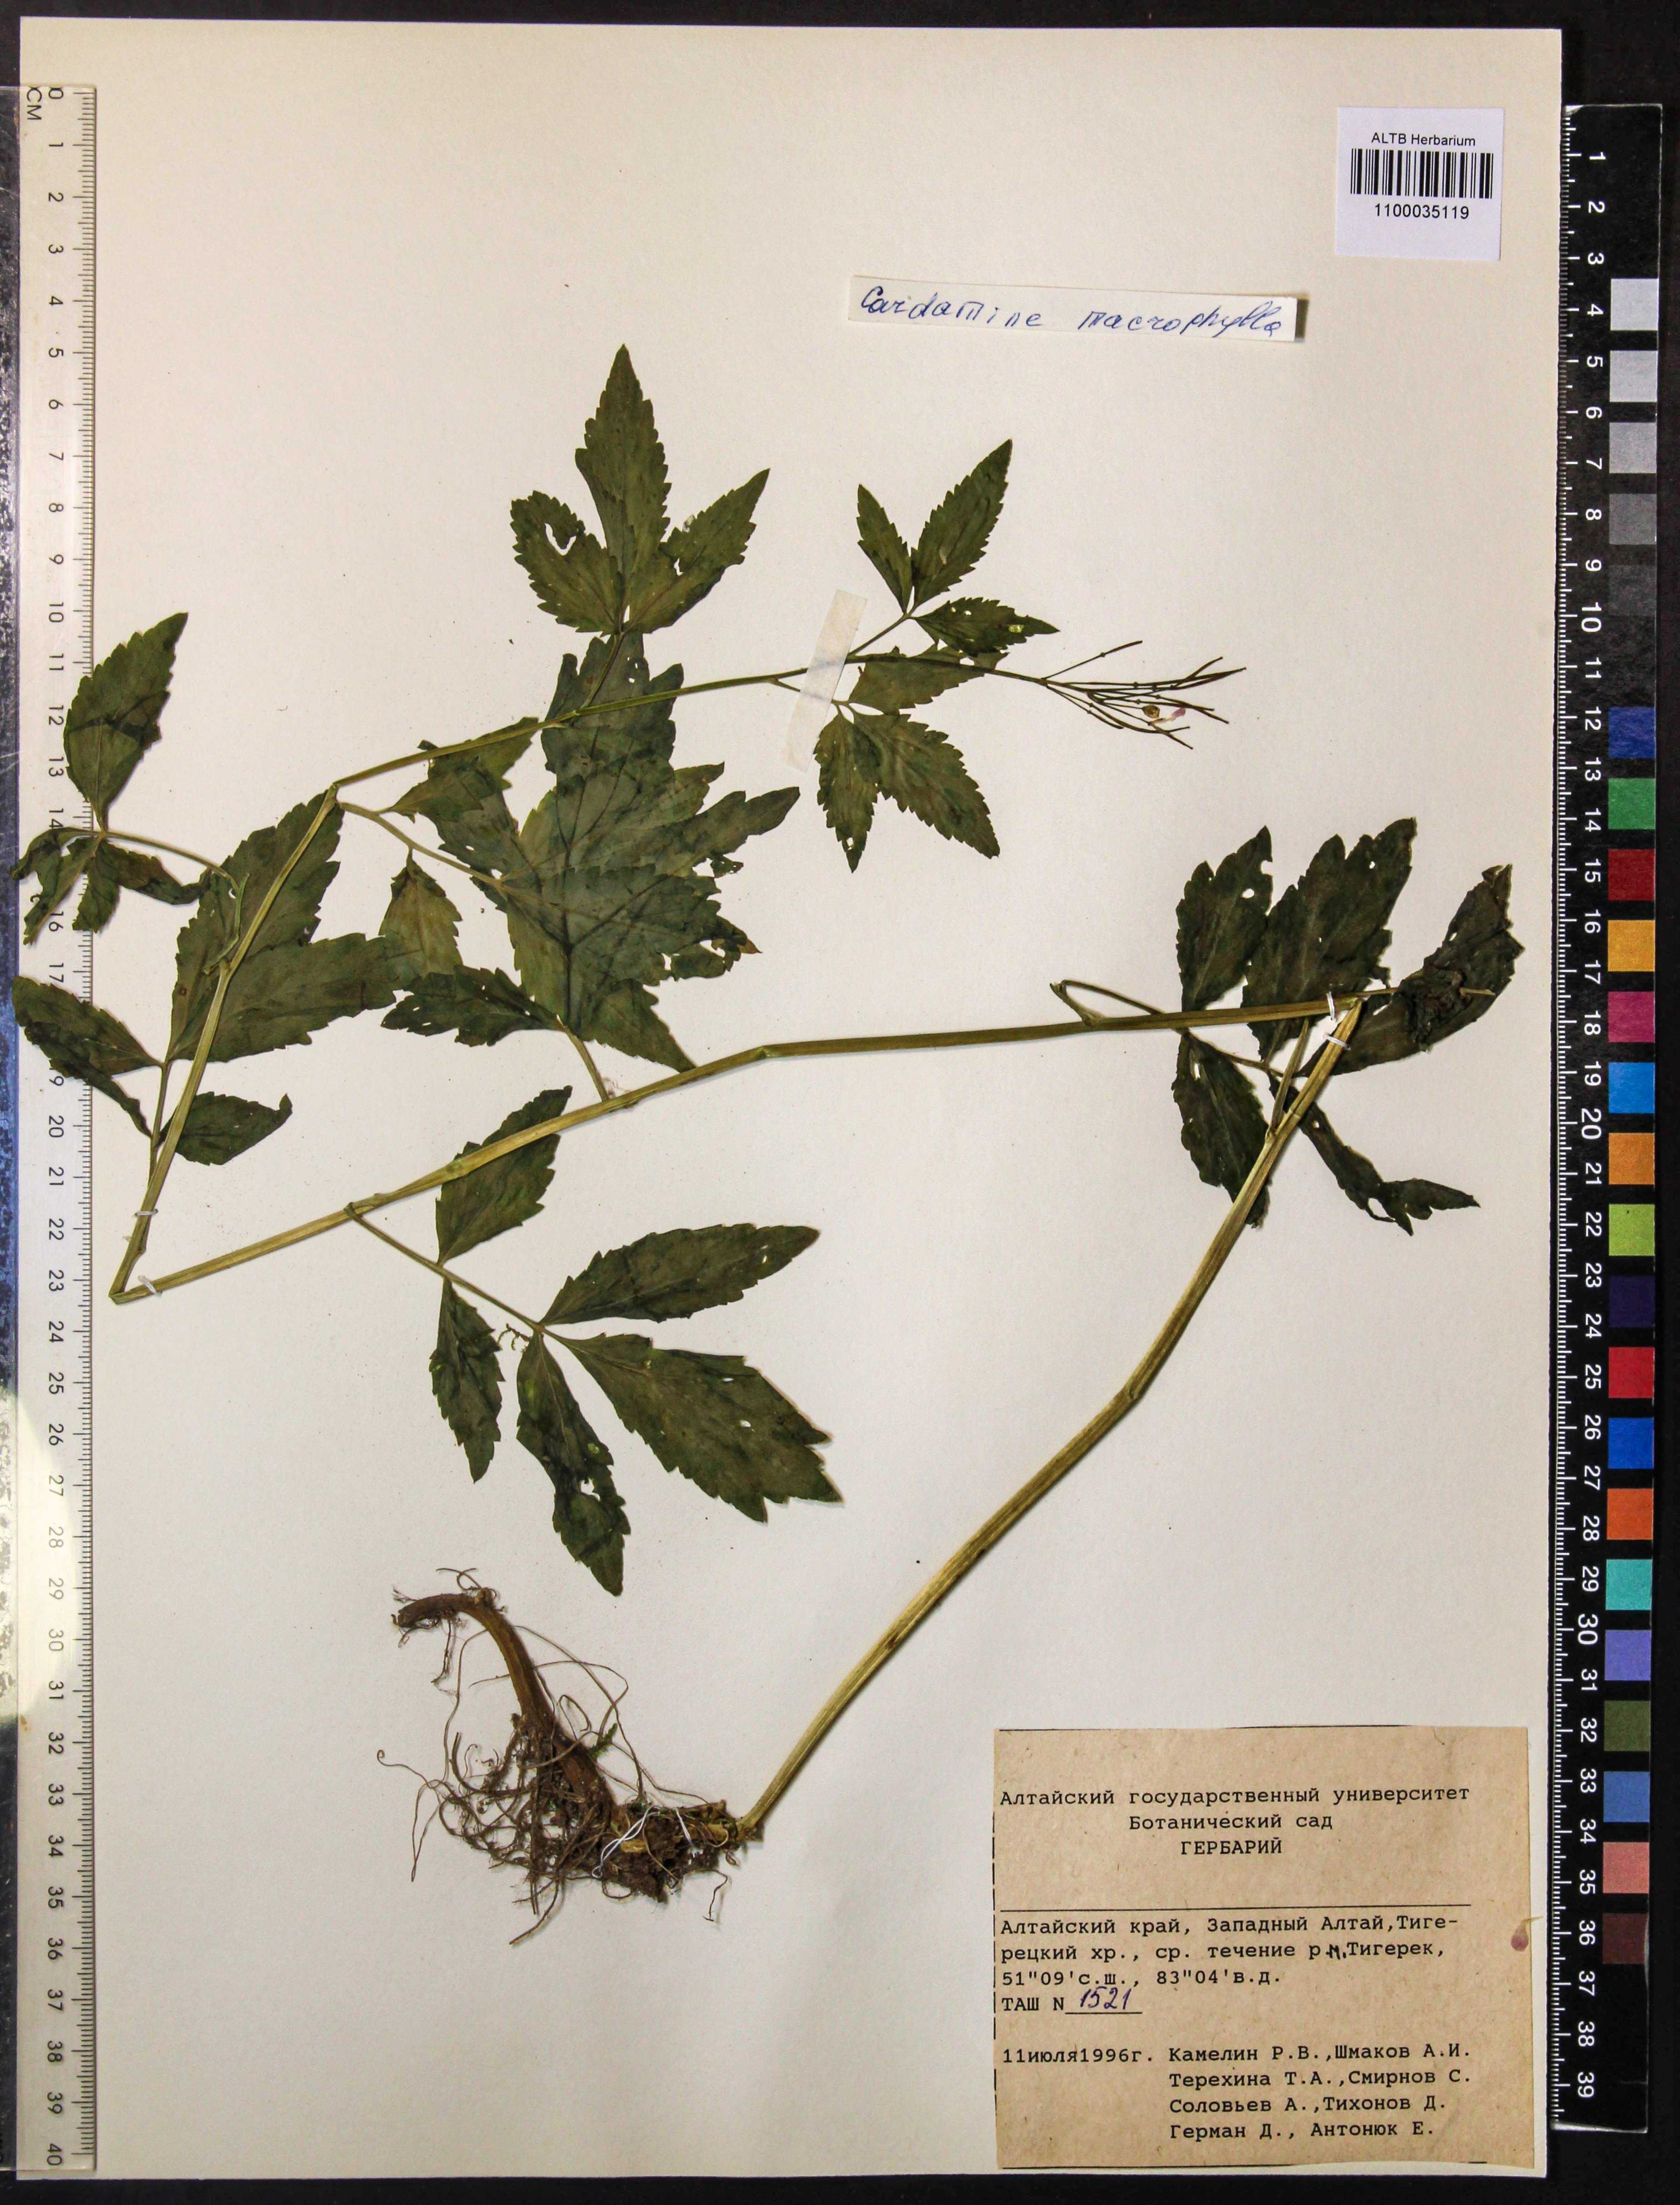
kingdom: Plantae
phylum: Tracheophyta
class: Magnoliopsida
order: Brassicales
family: Brassicaceae
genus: Cardamine
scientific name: Cardamine macrophylla
